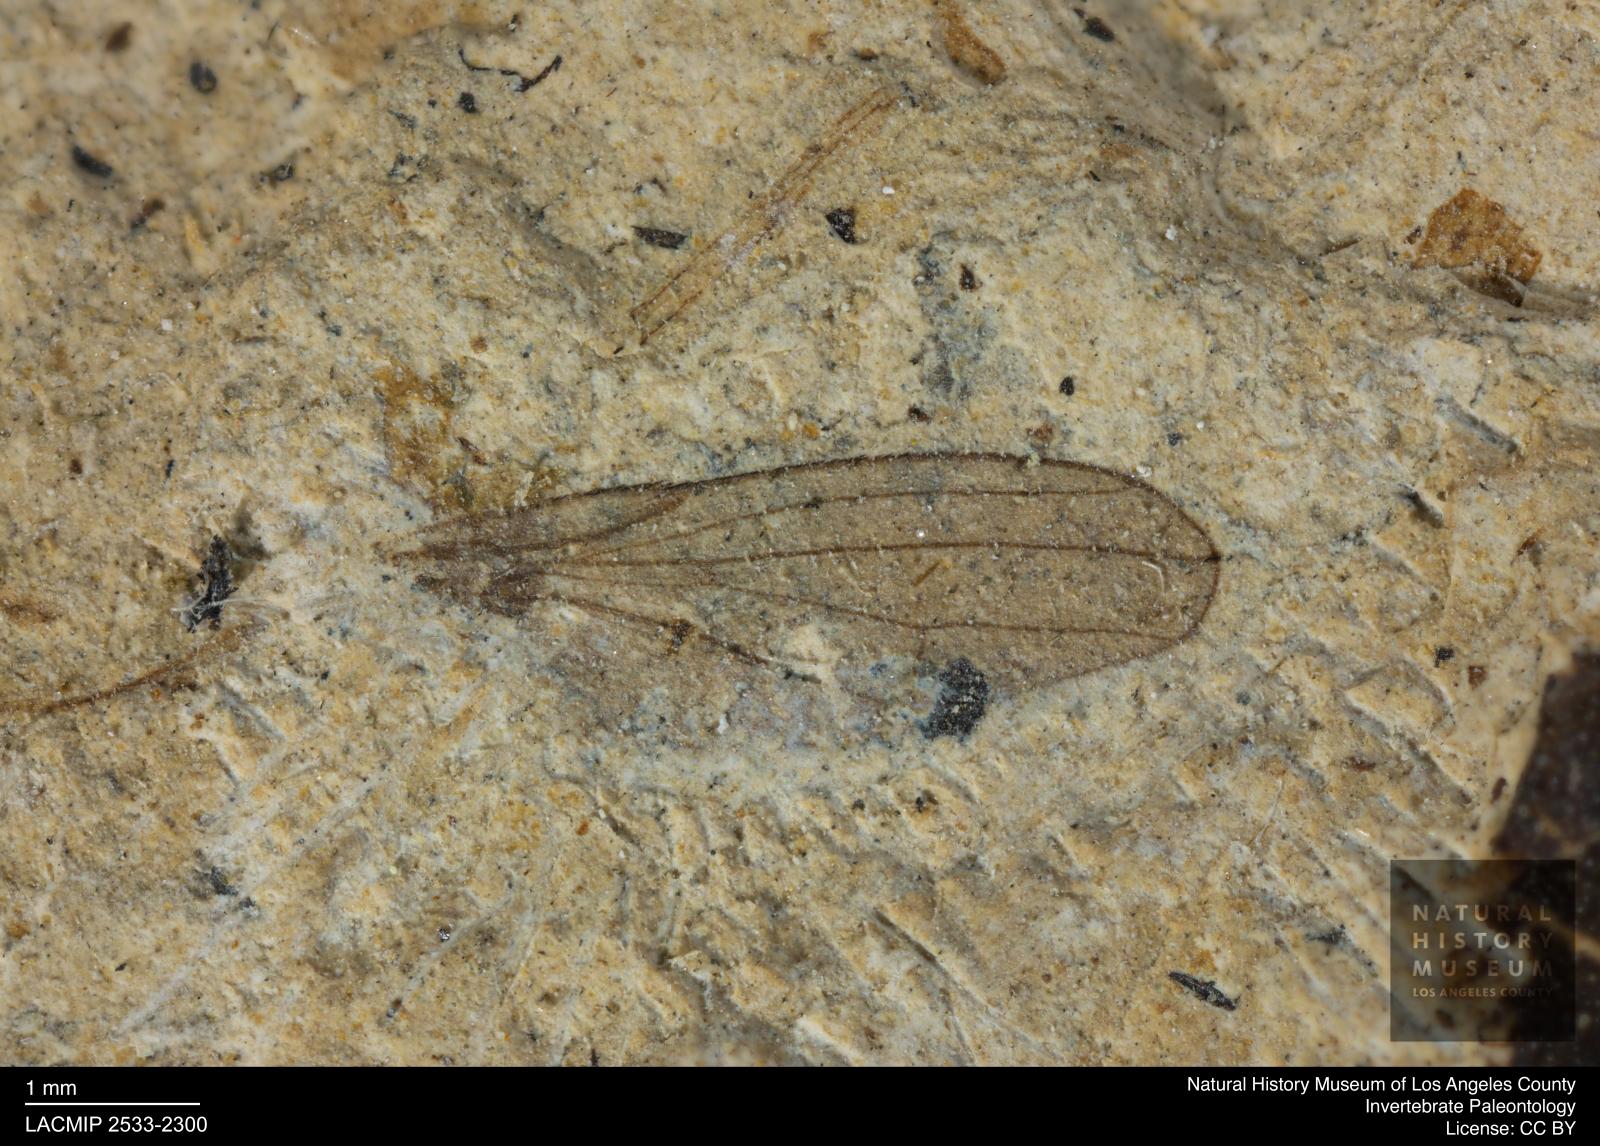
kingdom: Animalia
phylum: Arthropoda
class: Insecta
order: Diptera
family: Heleomyzidae
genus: Heleomyza
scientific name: Heleomyza Leria bauckhorni
